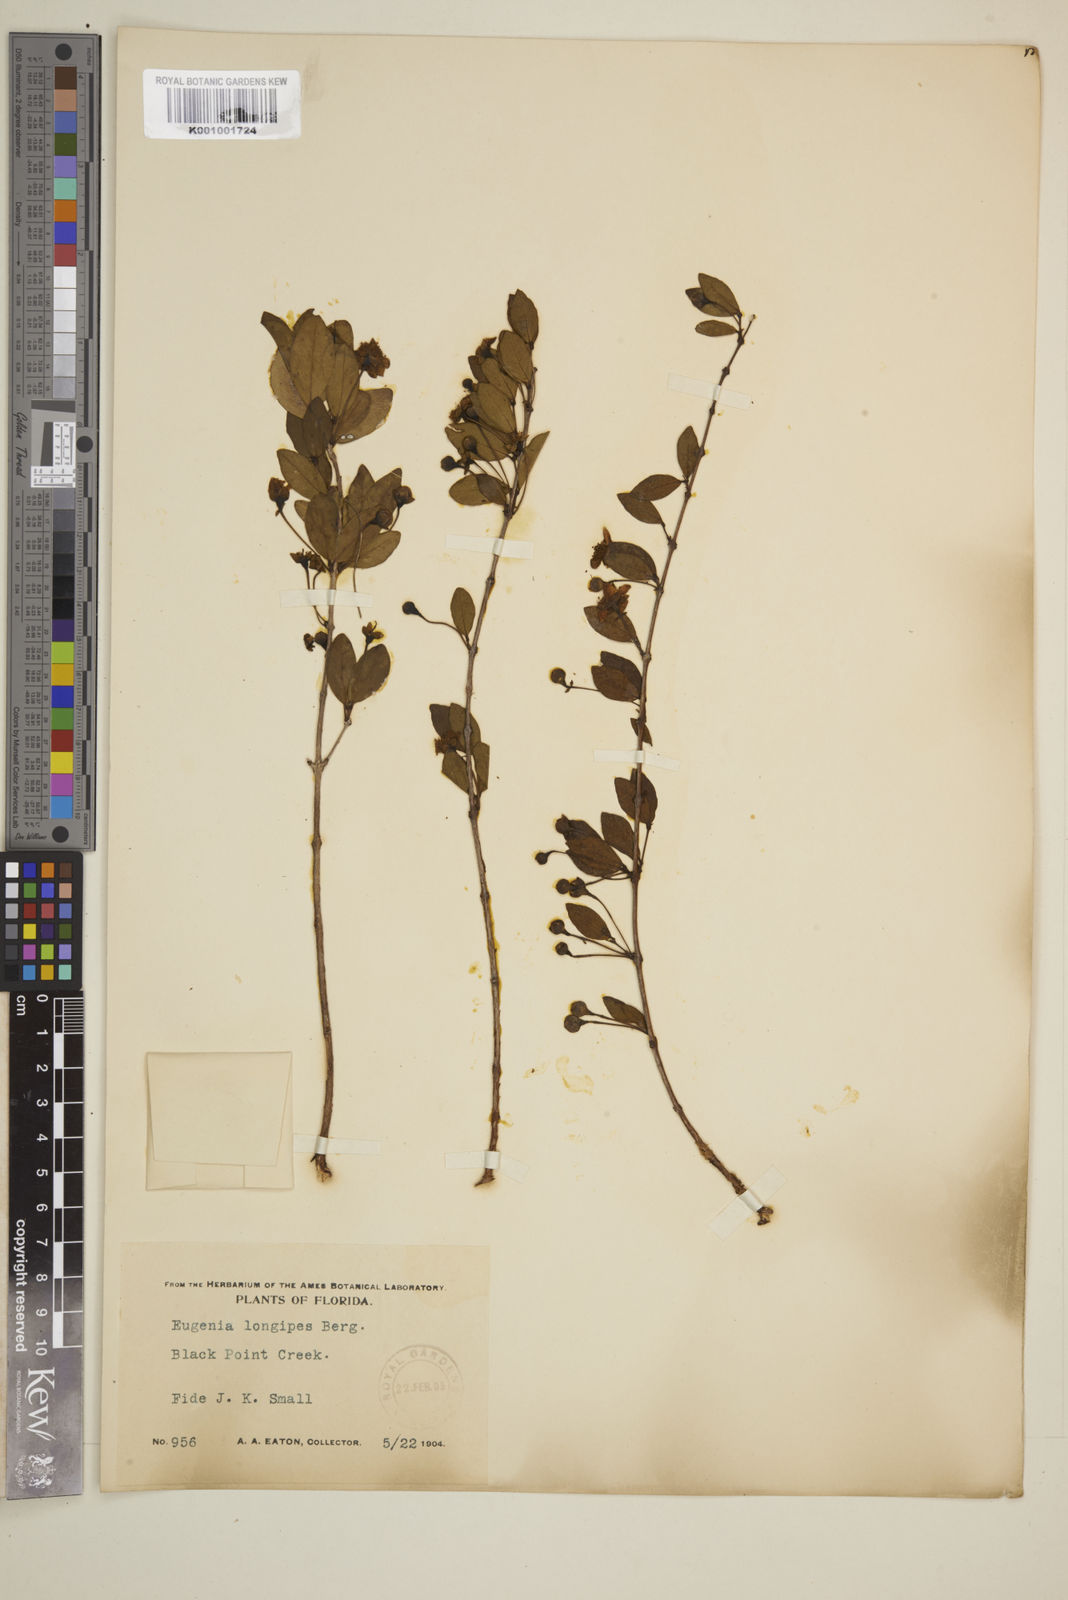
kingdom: Plantae
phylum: Tracheophyta
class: Magnoliopsida
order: Myrtales
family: Myrtaceae
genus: Mosiera
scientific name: Mosiera longipes
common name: Bahama stopper
